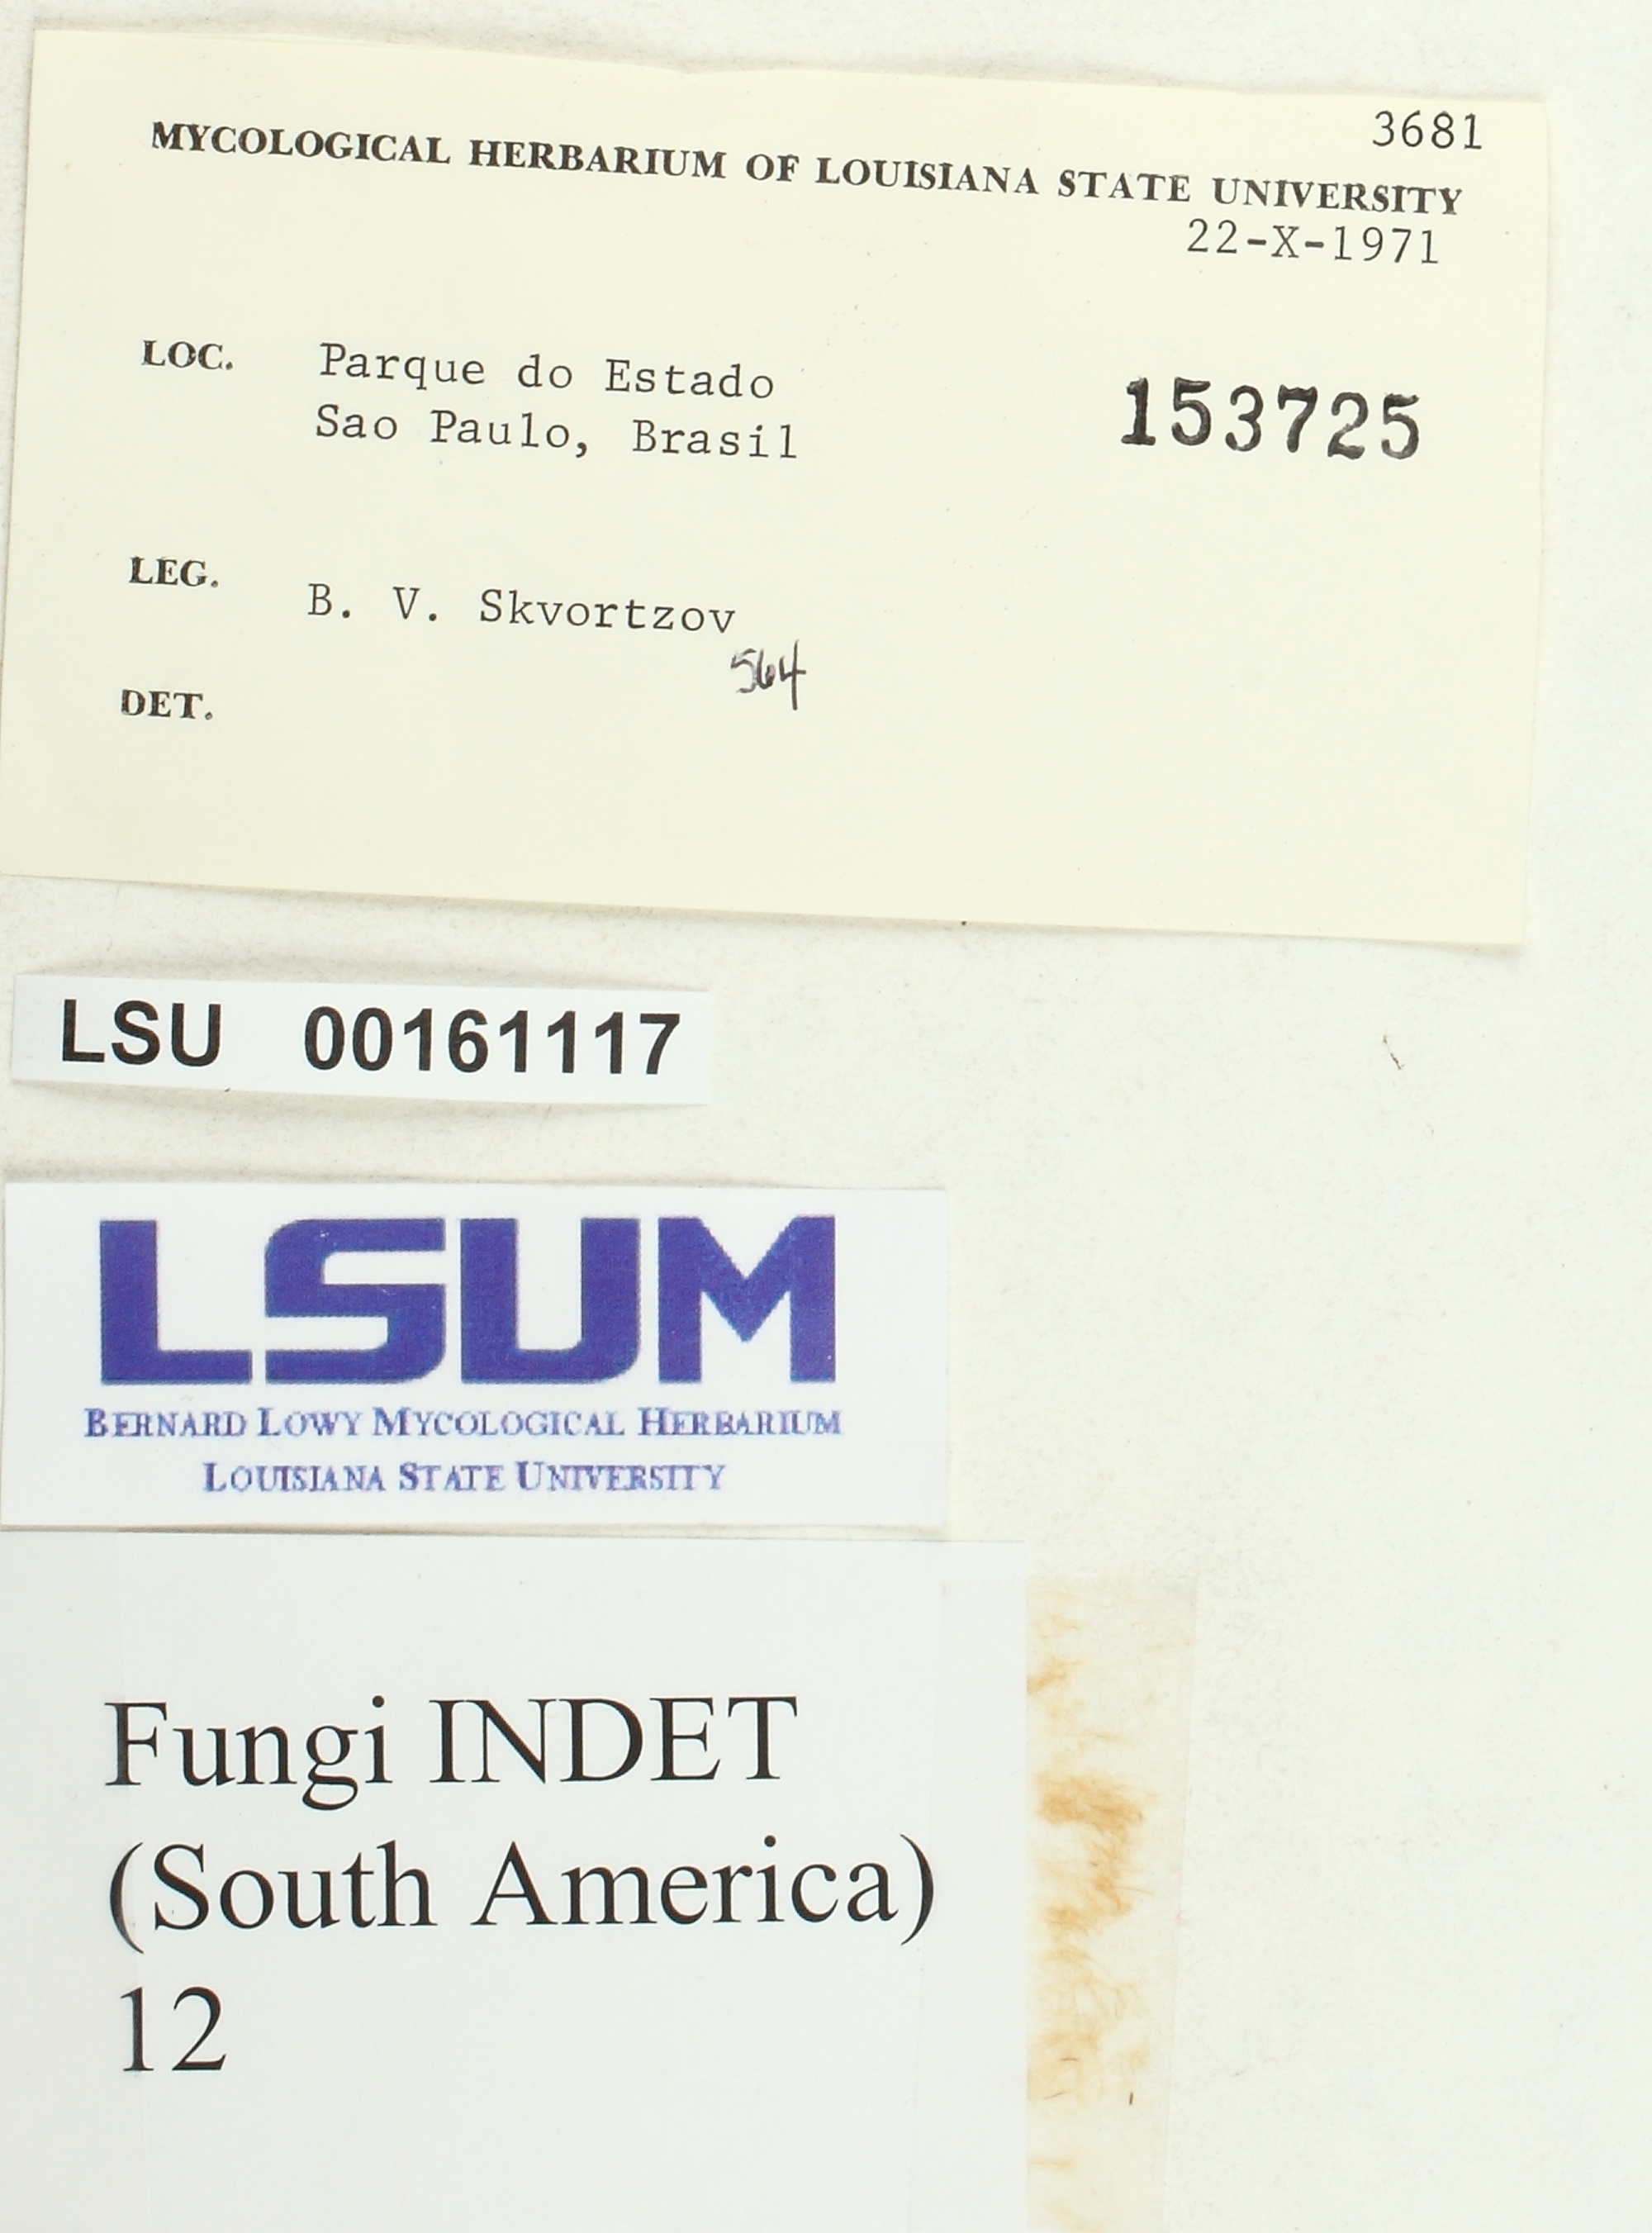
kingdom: Fungi
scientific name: Fungi
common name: Fungi
